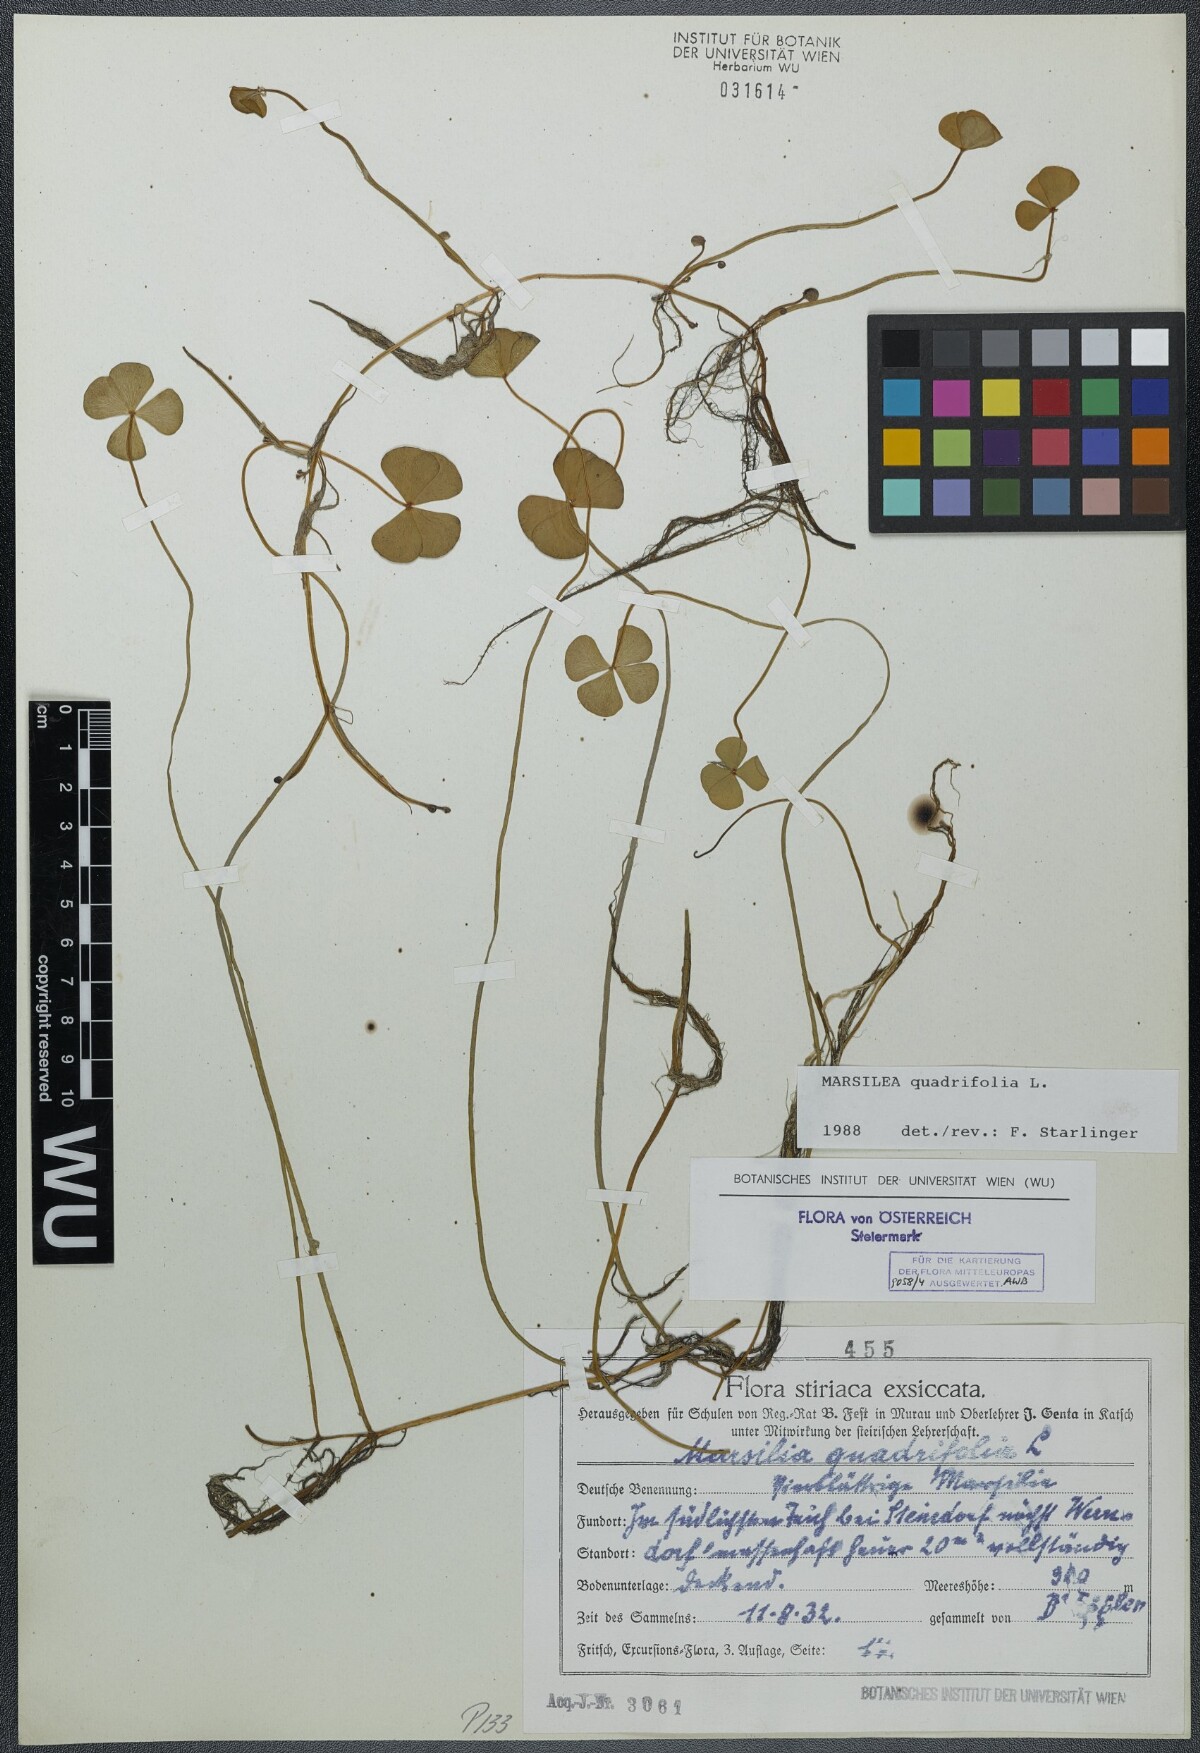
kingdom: Plantae
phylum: Tracheophyta
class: Polypodiopsida
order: Salviniales
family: Marsileaceae
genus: Marsilea
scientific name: Marsilea quadrifolia
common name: Water shamrock
